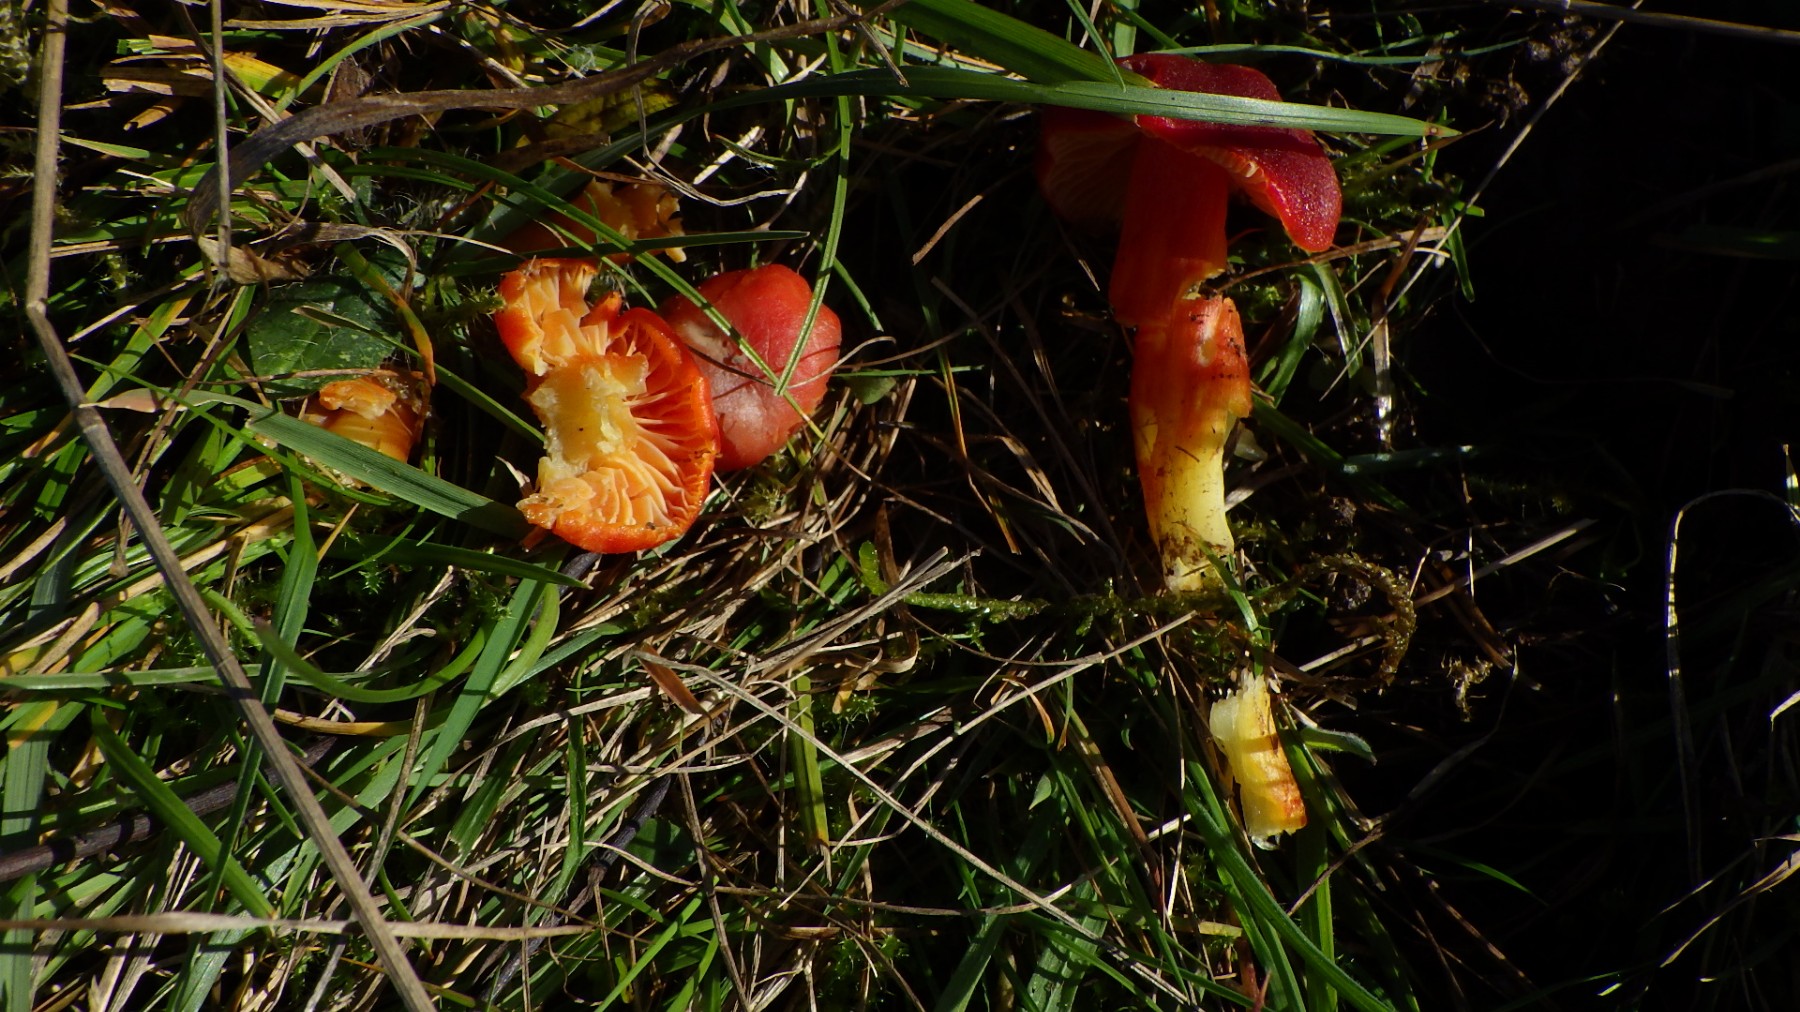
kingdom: Fungi
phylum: Basidiomycota
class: Agaricomycetes
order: Agaricales
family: Hygrophoraceae
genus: Hygrocybe
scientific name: Hygrocybe punicea
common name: skarlagen-vokshat
